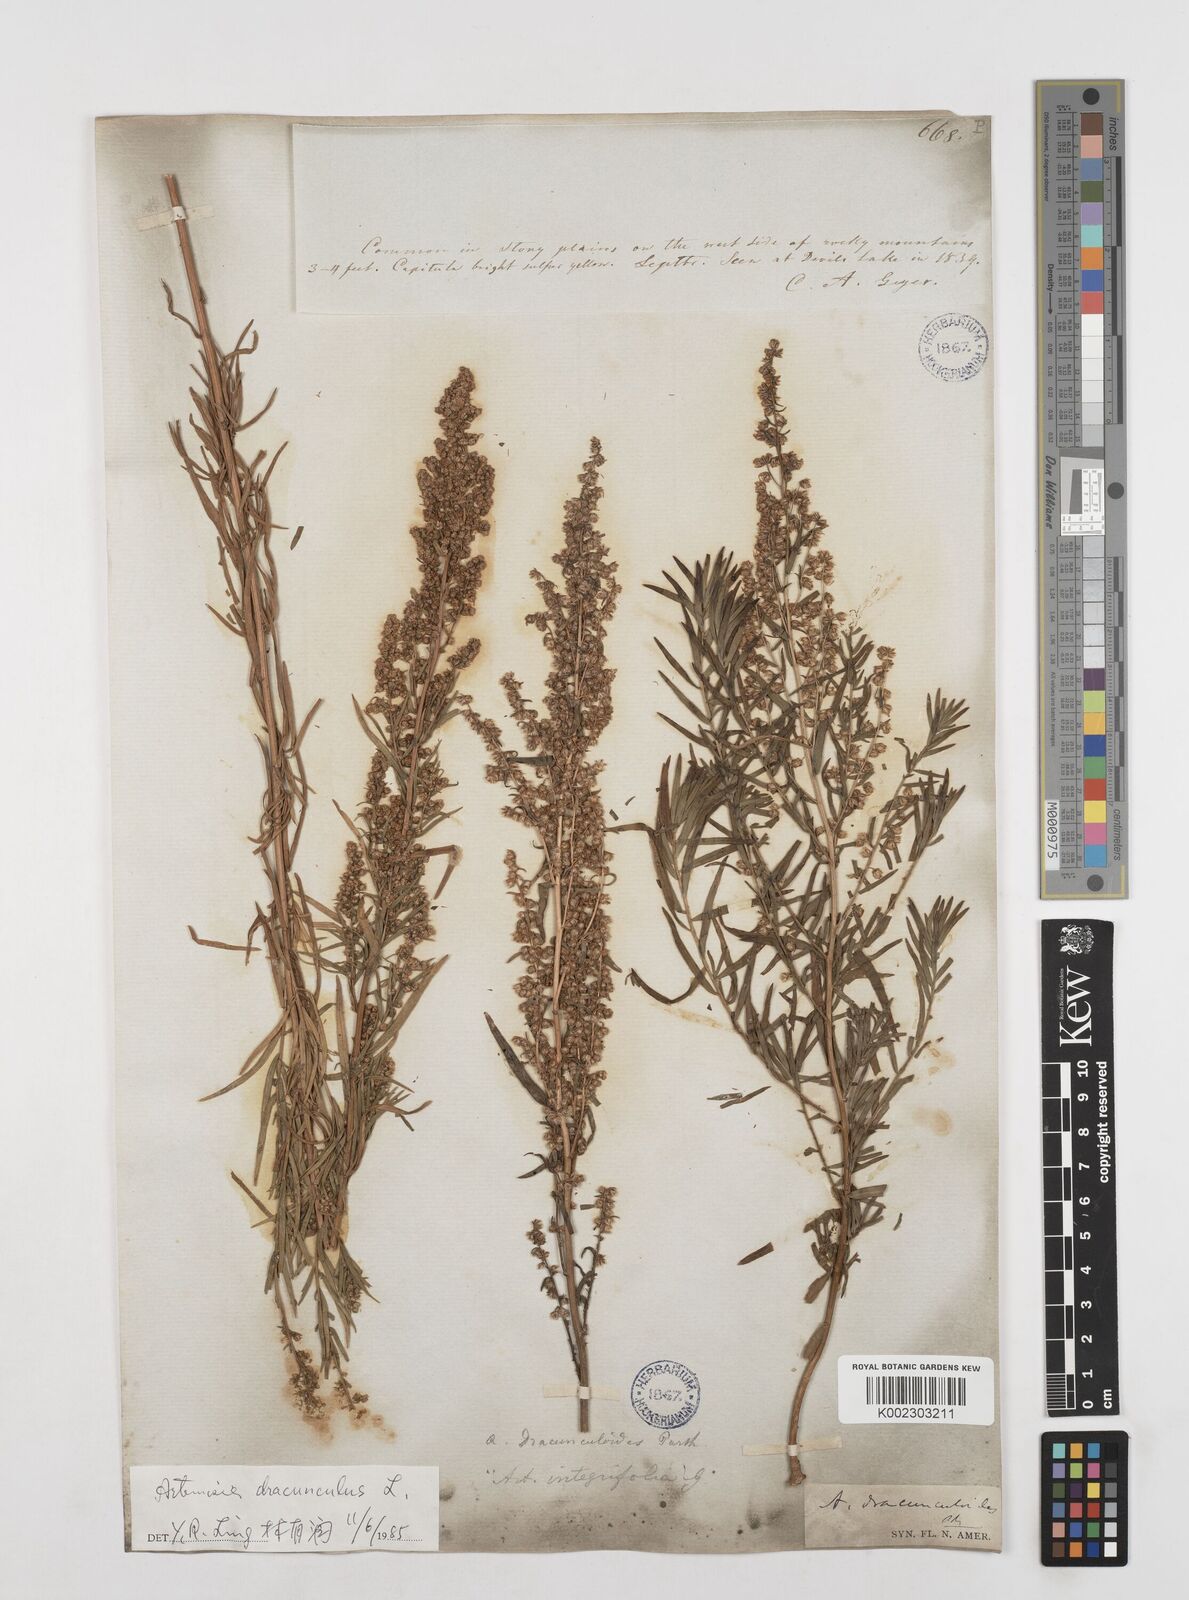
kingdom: Plantae
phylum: Tracheophyta
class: Magnoliopsida
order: Asterales
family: Asteraceae
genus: Artemisia
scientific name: Artemisia dracunculus
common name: Tarragon
